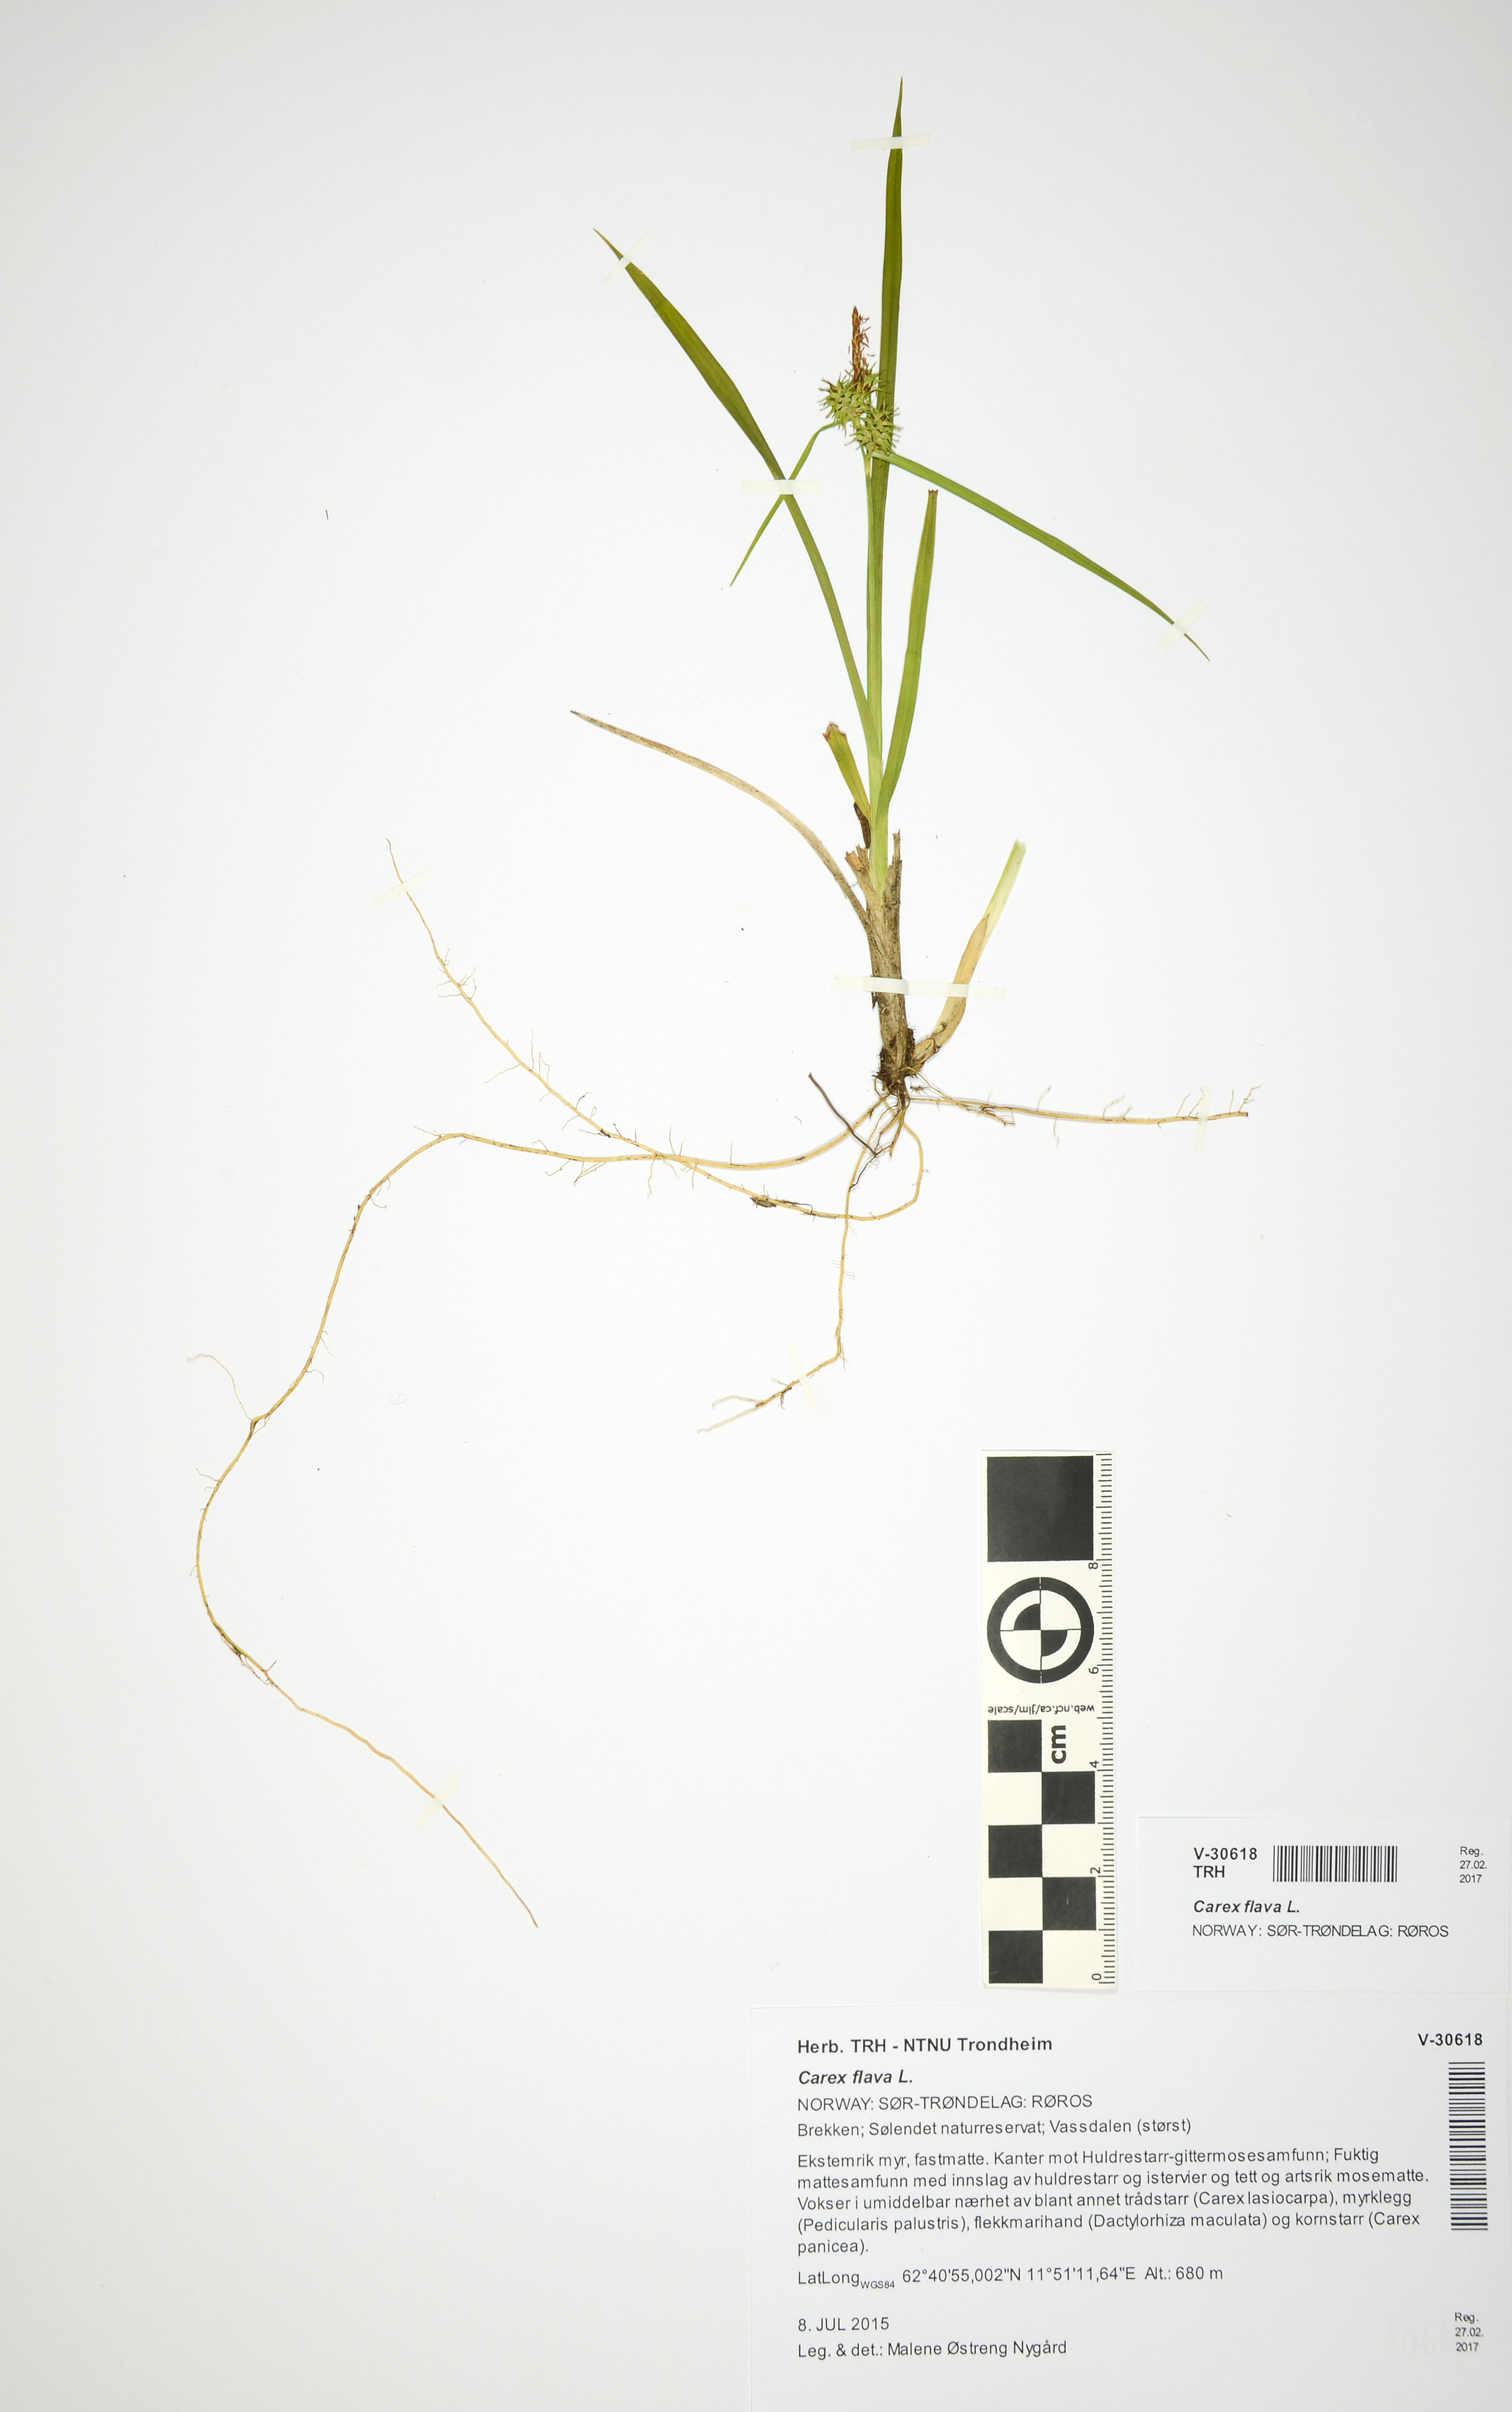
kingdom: Plantae
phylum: Tracheophyta
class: Liliopsida
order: Poales
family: Cyperaceae
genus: Carex
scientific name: Carex flava
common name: Large yellow-sedge
